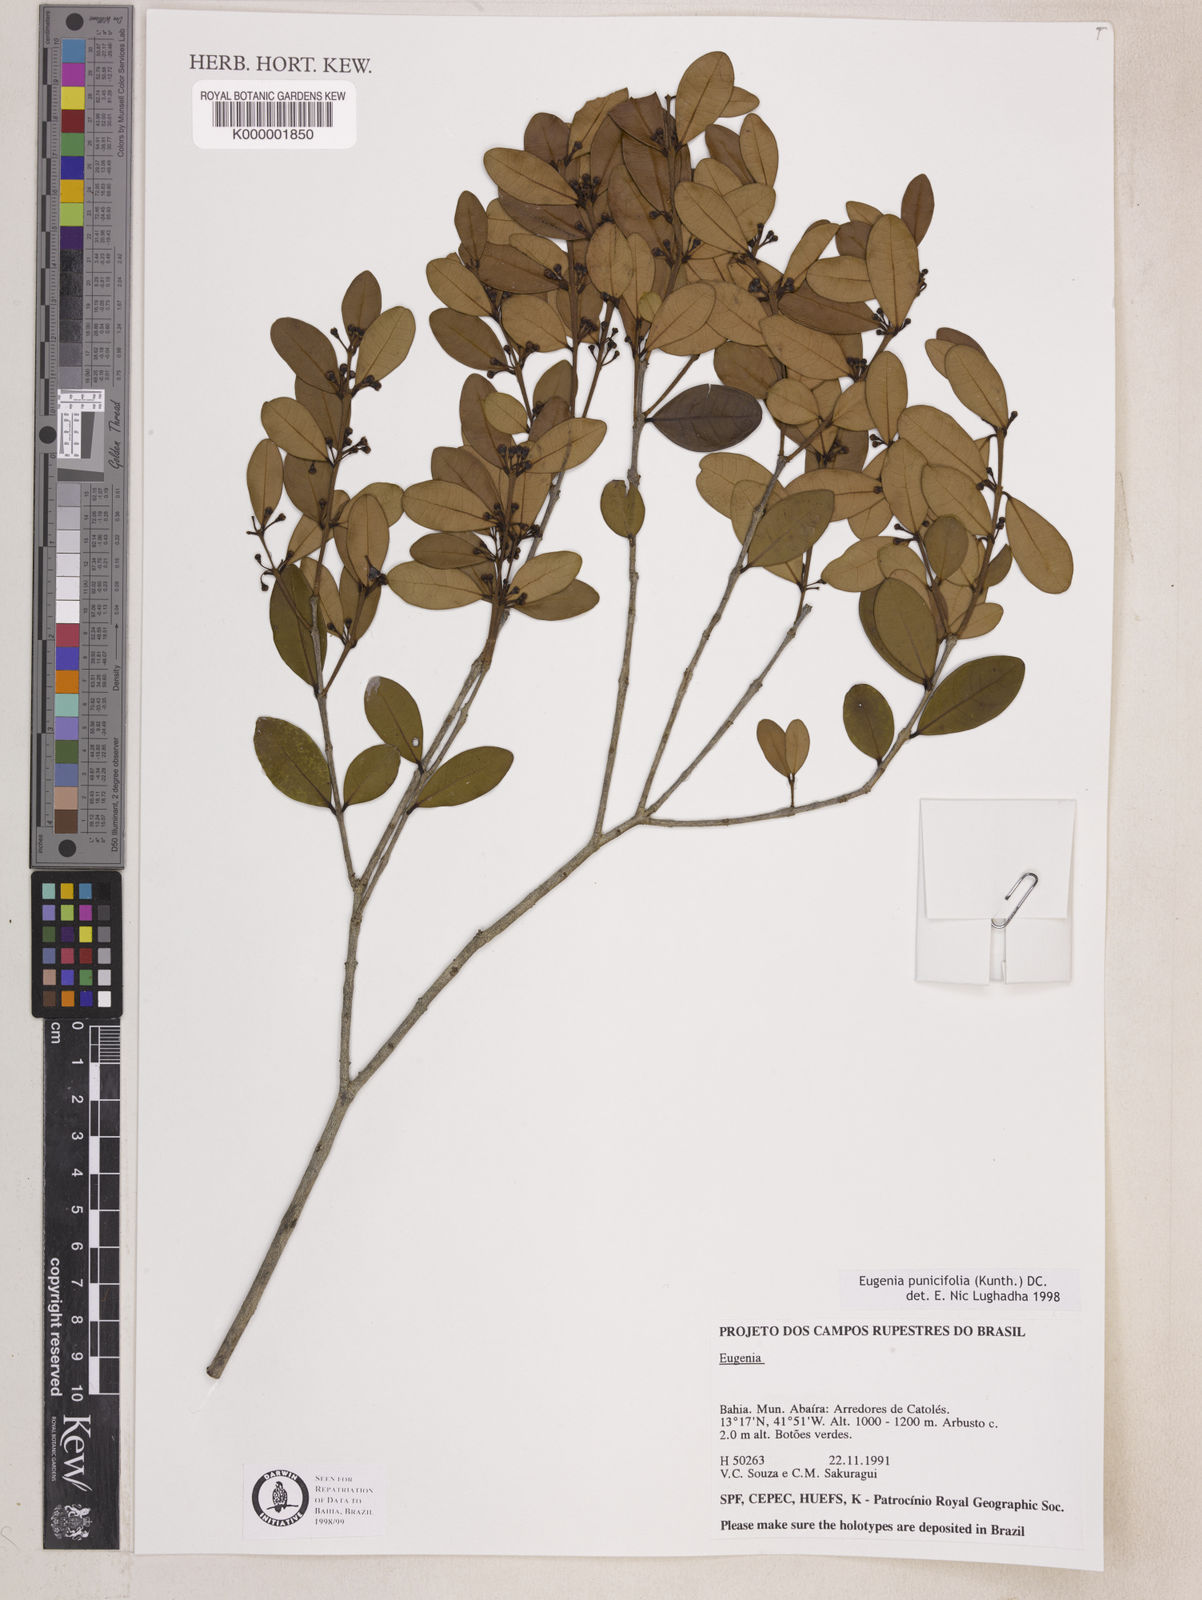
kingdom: Plantae
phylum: Tracheophyta
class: Magnoliopsida
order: Myrtales
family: Myrtaceae
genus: Eugenia
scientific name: Eugenia punicifolia
